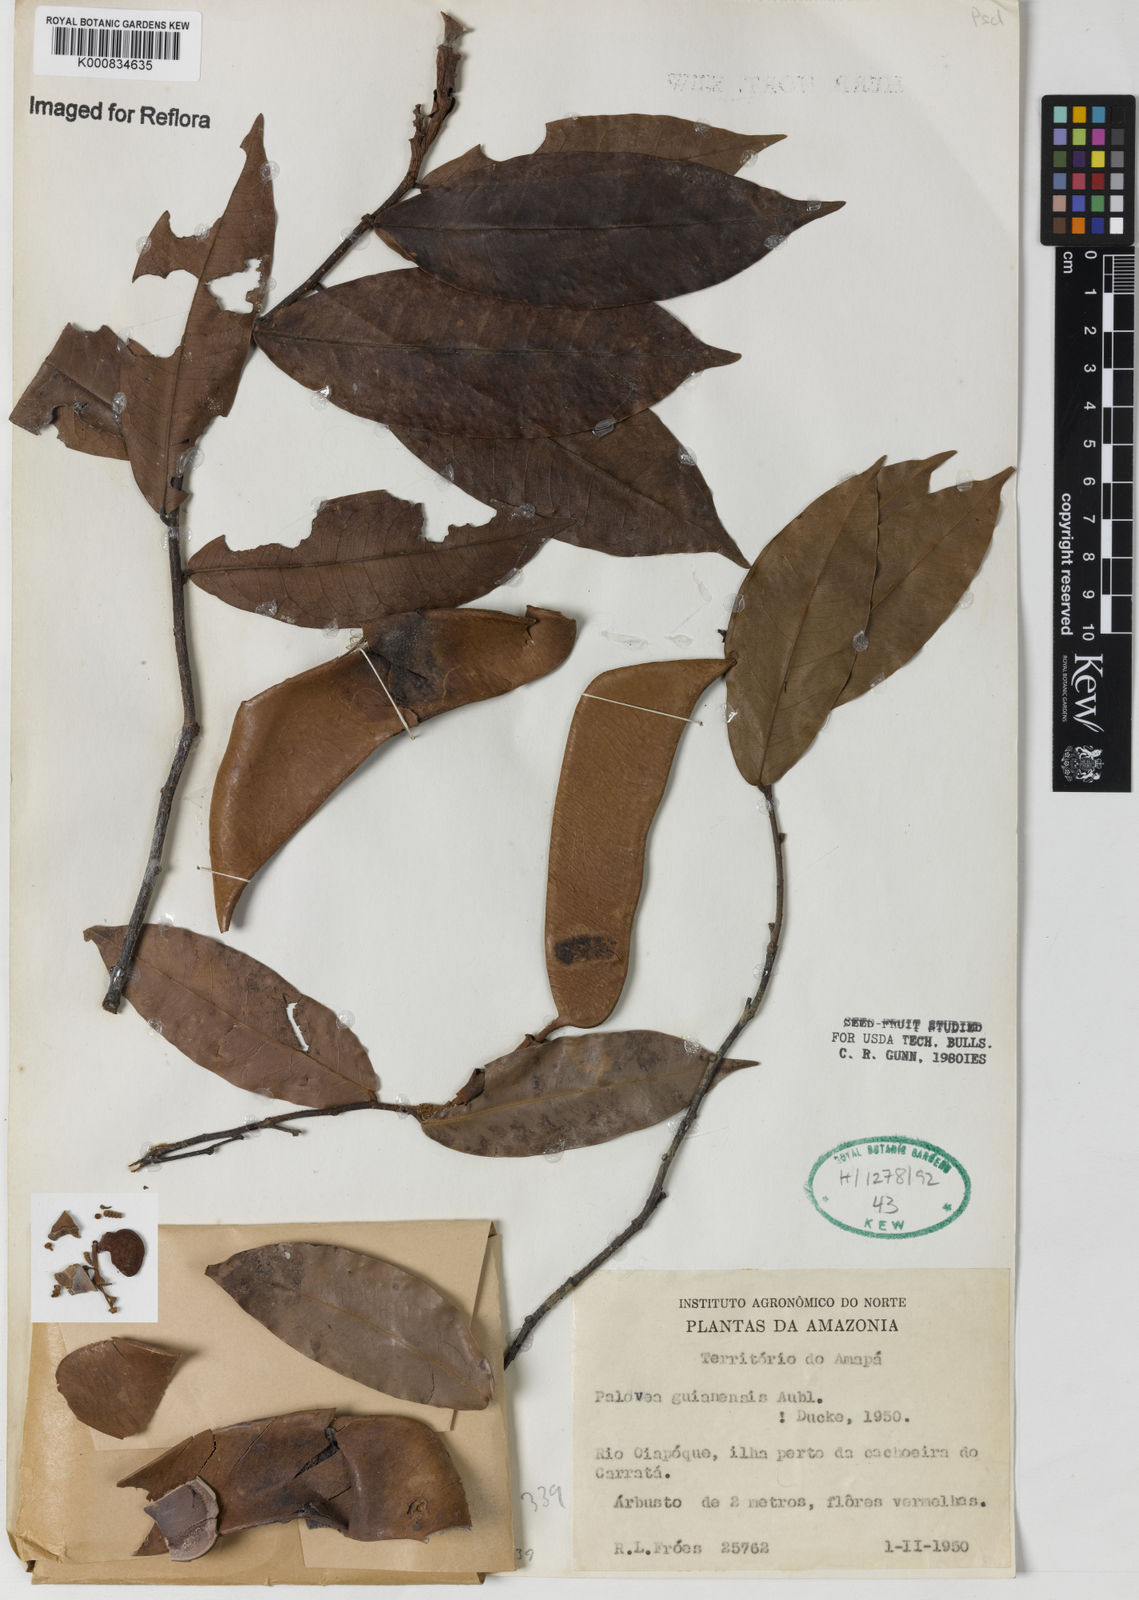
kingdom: Plantae
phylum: Tracheophyta
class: Magnoliopsida
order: Fabales
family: Fabaceae
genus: Paloue
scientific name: Paloue
